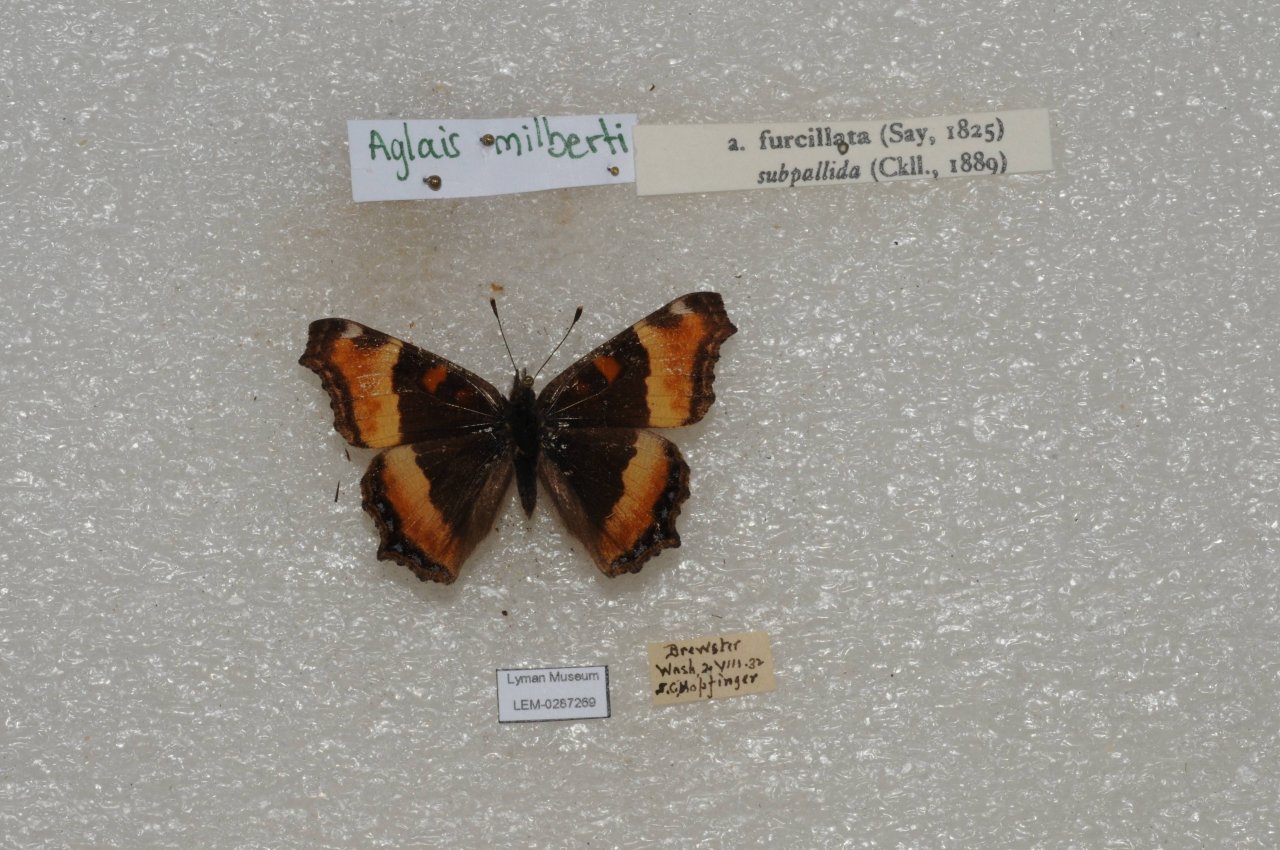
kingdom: Animalia
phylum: Arthropoda
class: Insecta
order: Lepidoptera
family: Nymphalidae
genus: Aglais
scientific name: Aglais milberti
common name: Milbert's Tortoiseshell
